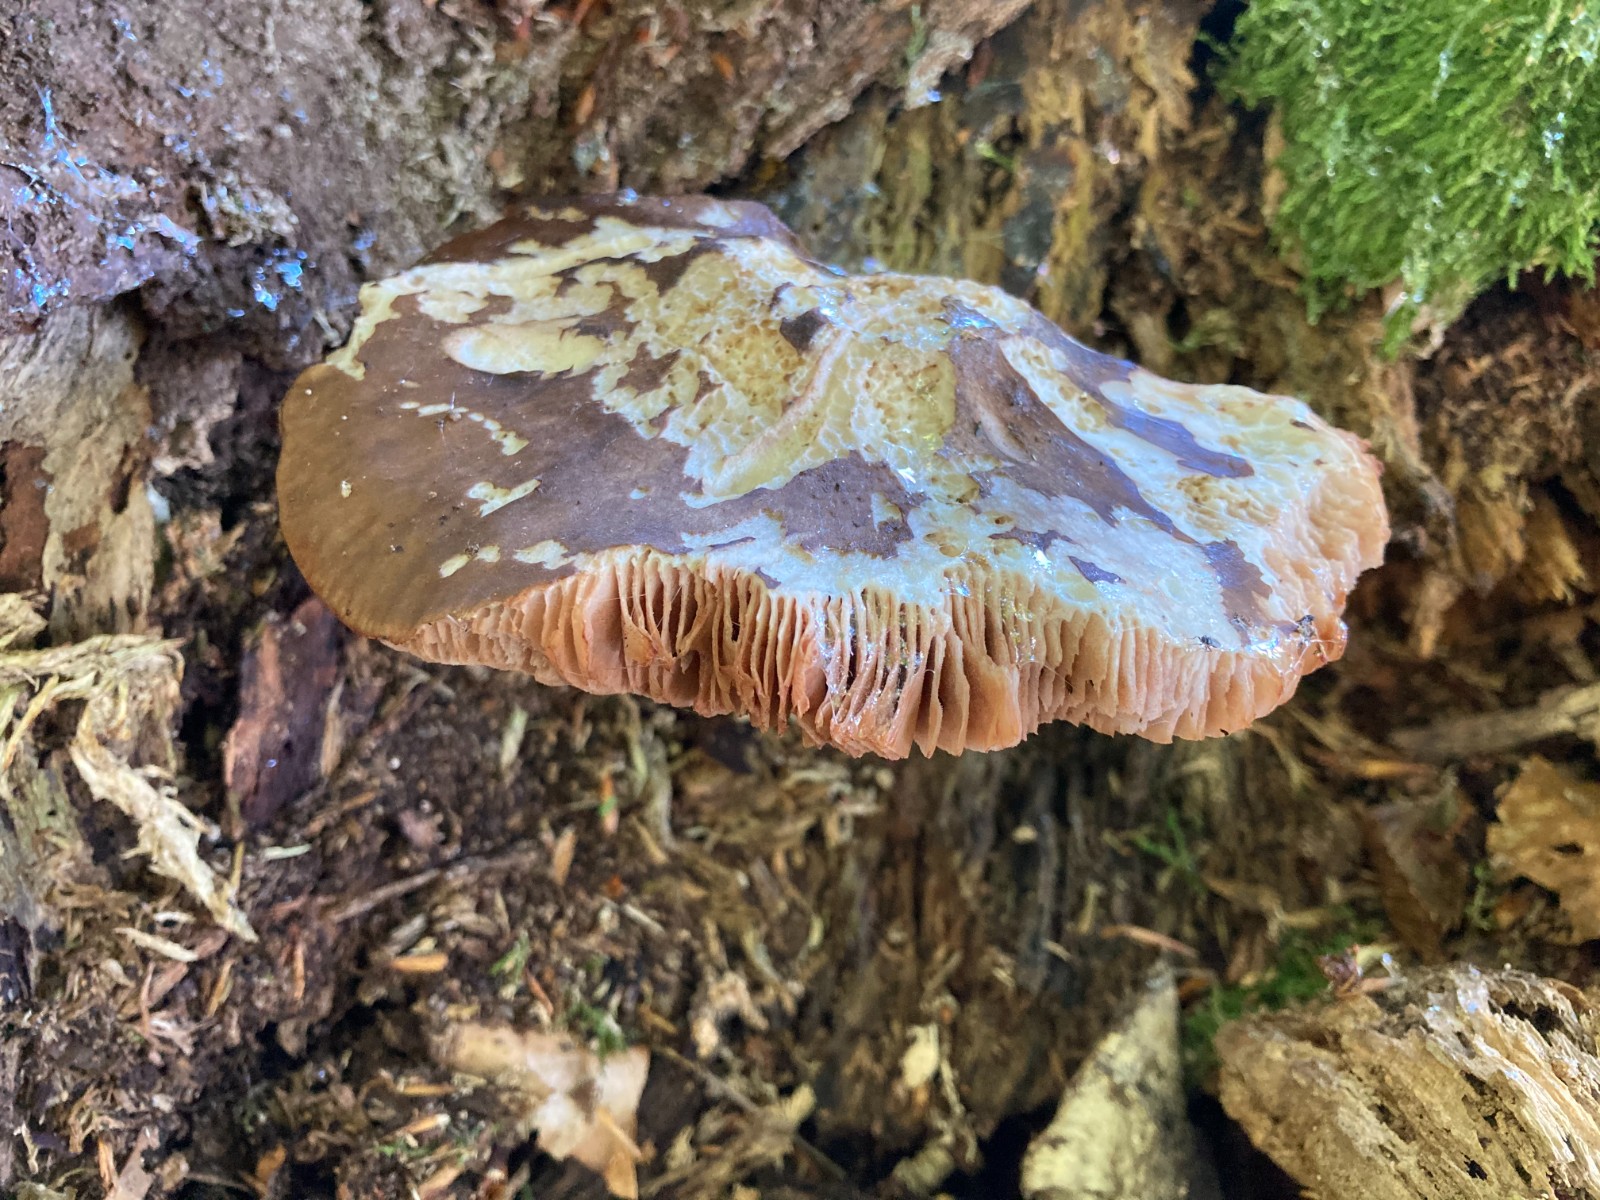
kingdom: Fungi
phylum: Basidiomycota
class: Agaricomycetes
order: Agaricales
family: Pluteaceae
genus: Pluteus
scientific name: Pluteus cervinus
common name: sodfarvet skærmhat
